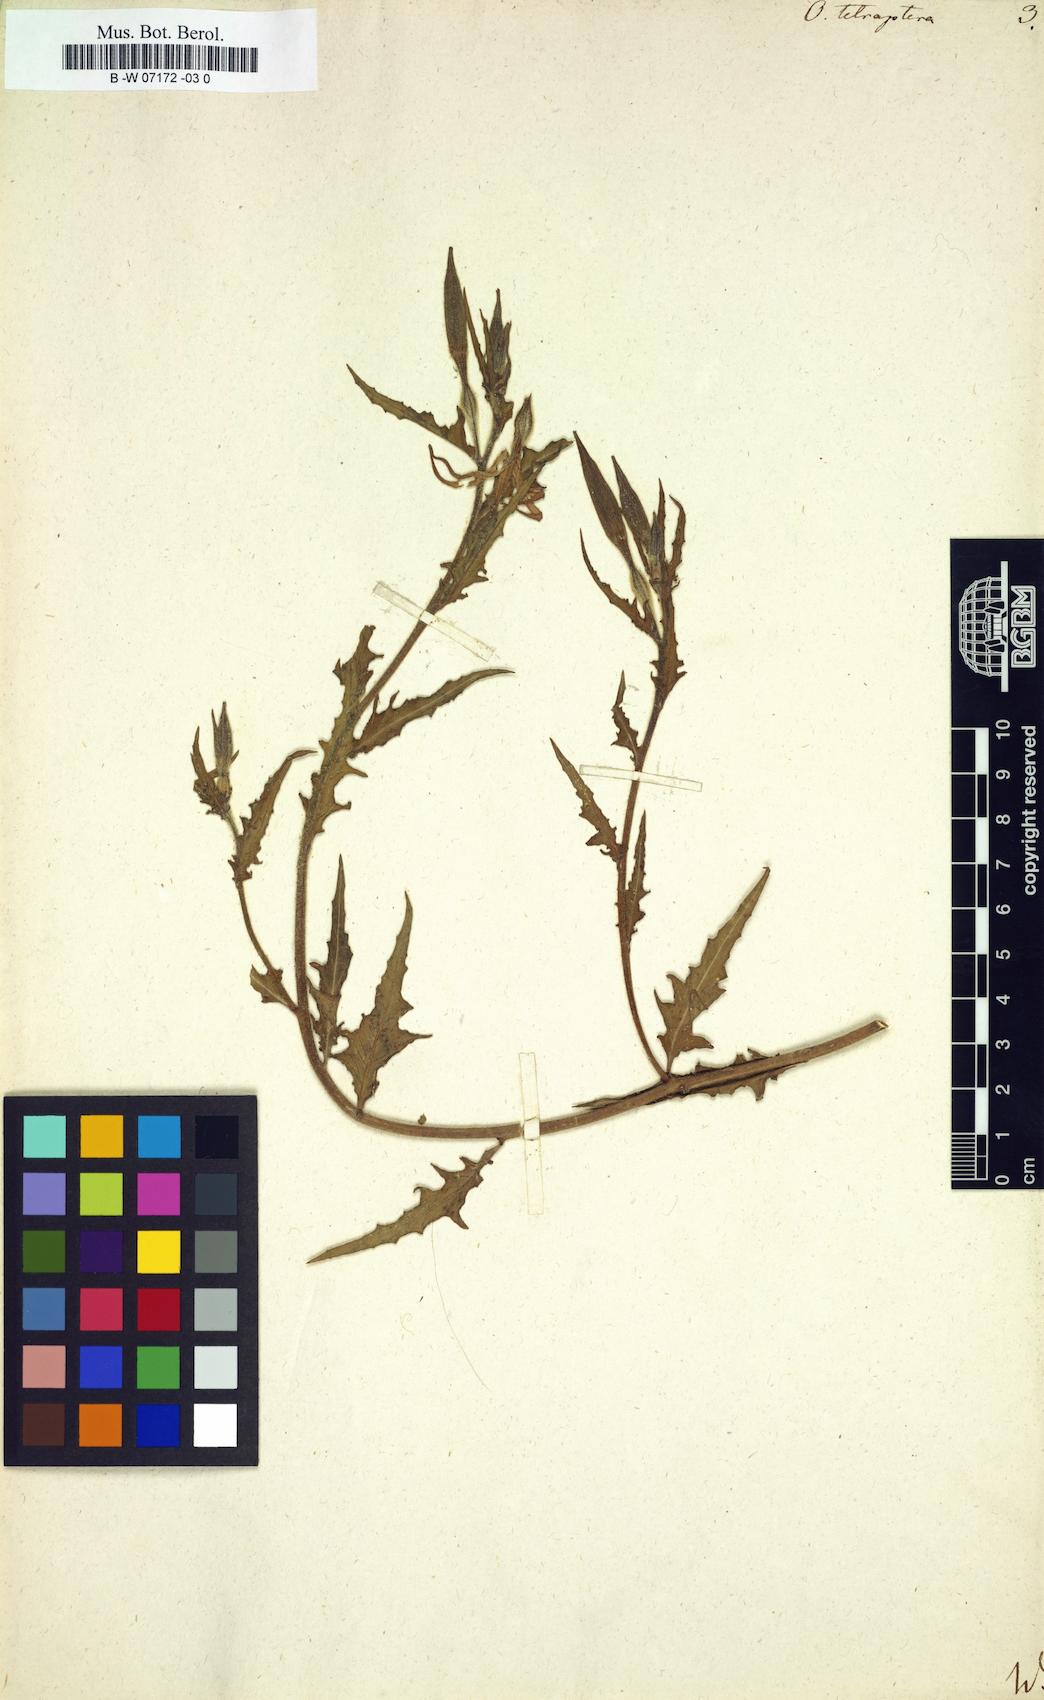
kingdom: Plantae
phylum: Tracheophyta
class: Magnoliopsida
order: Myrtales
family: Onagraceae
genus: Oenothera
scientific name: Oenothera tetraptera
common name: Four-wing evening-primrose
